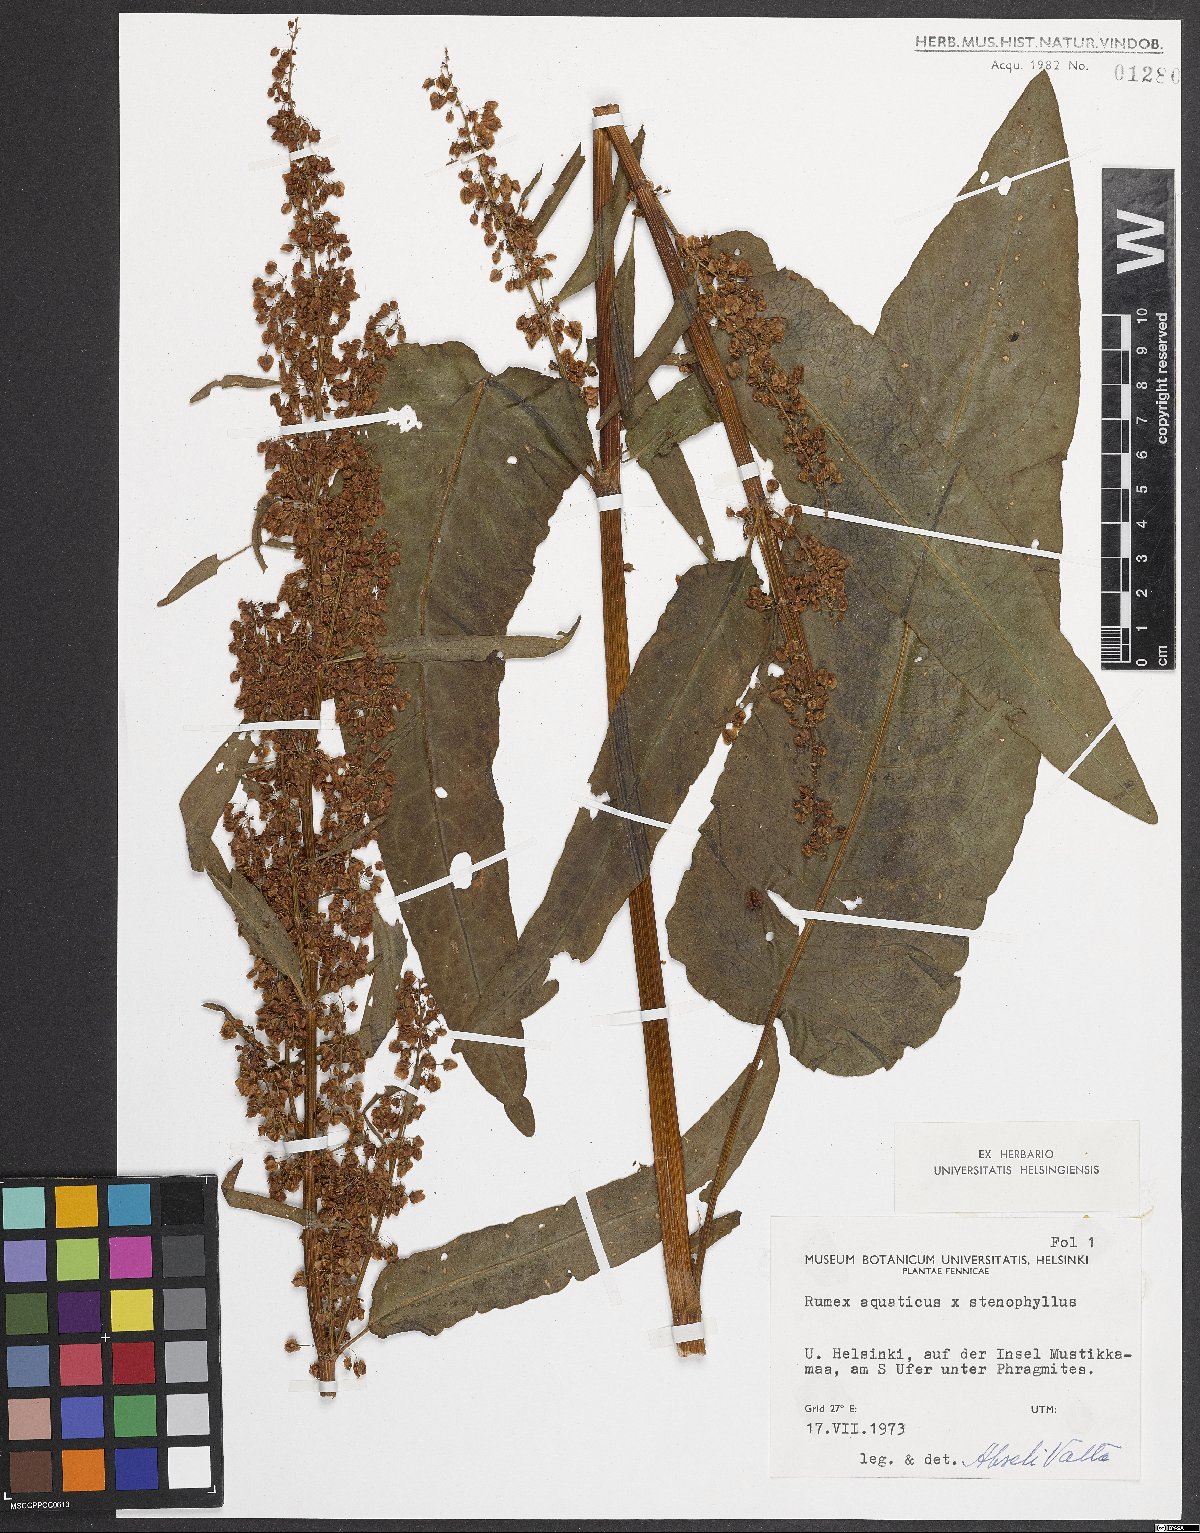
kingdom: Plantae
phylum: Tracheophyta
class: Magnoliopsida
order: Caryophyllales
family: Polygonaceae
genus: Rumex
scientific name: Rumex
